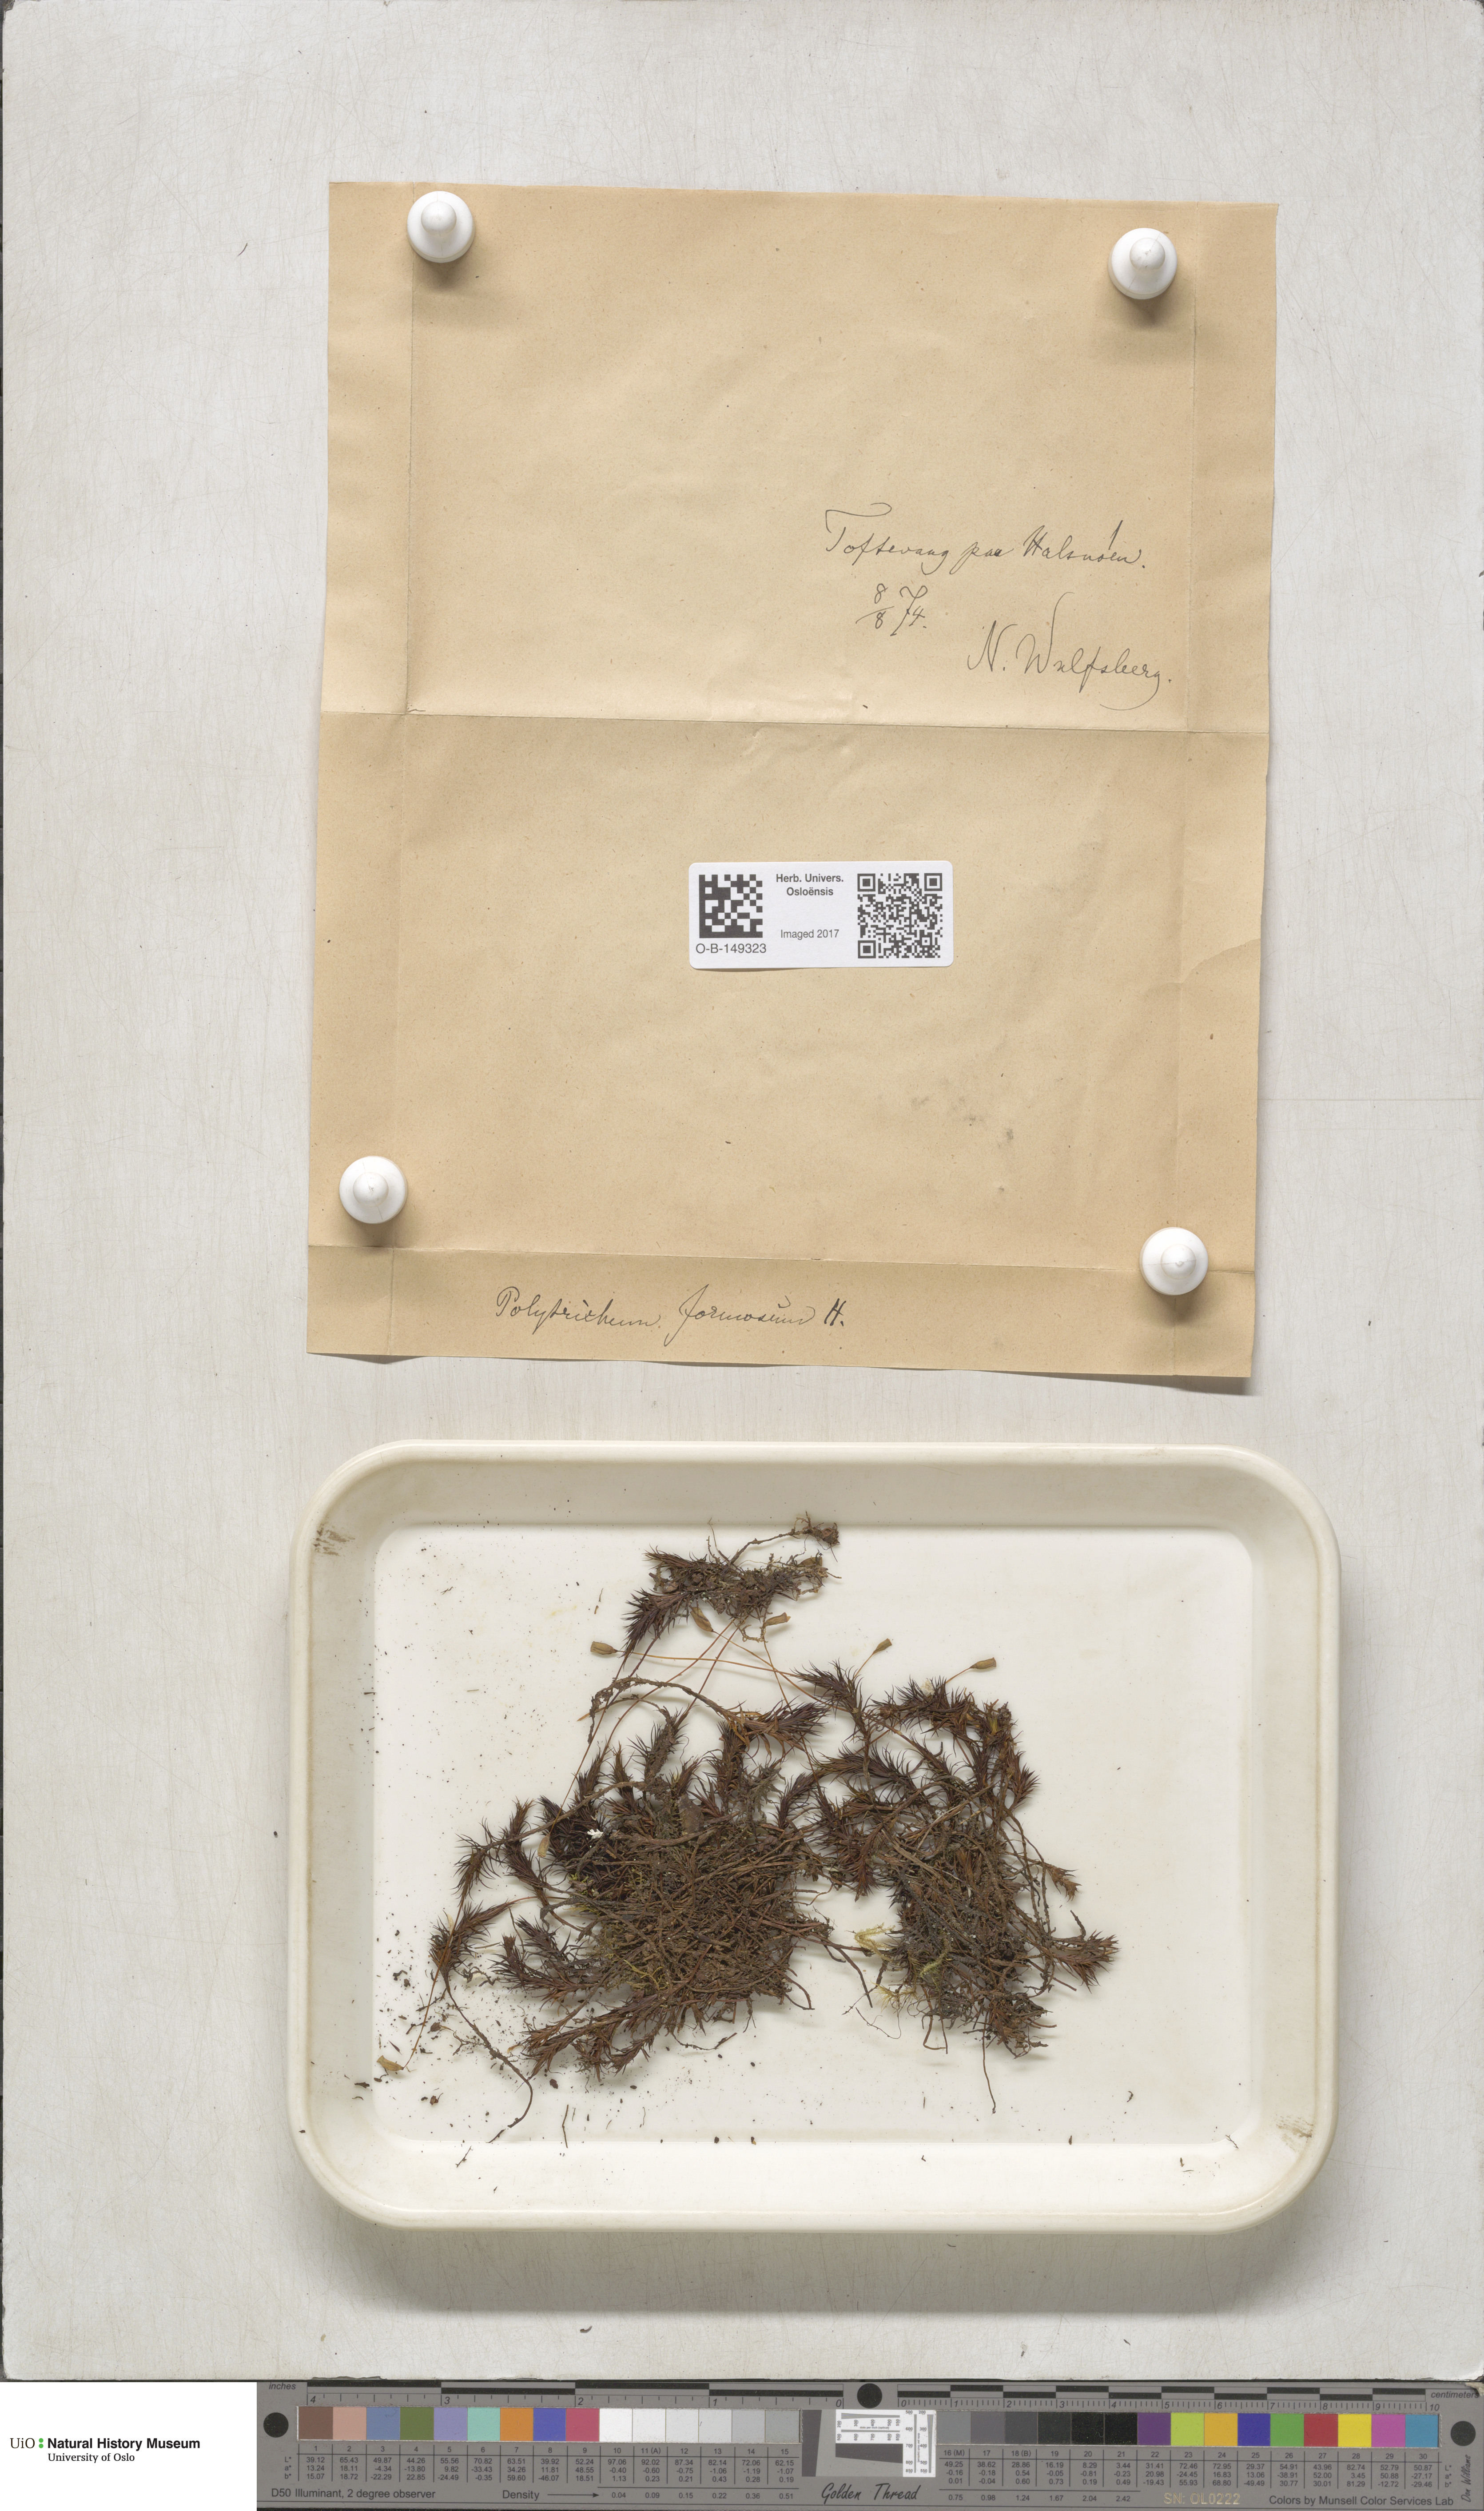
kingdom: Plantae
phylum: Bryophyta
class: Polytrichopsida
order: Polytrichales
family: Polytrichaceae
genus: Polytrichum
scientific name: Polytrichum formosum
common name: Bank haircap moss
